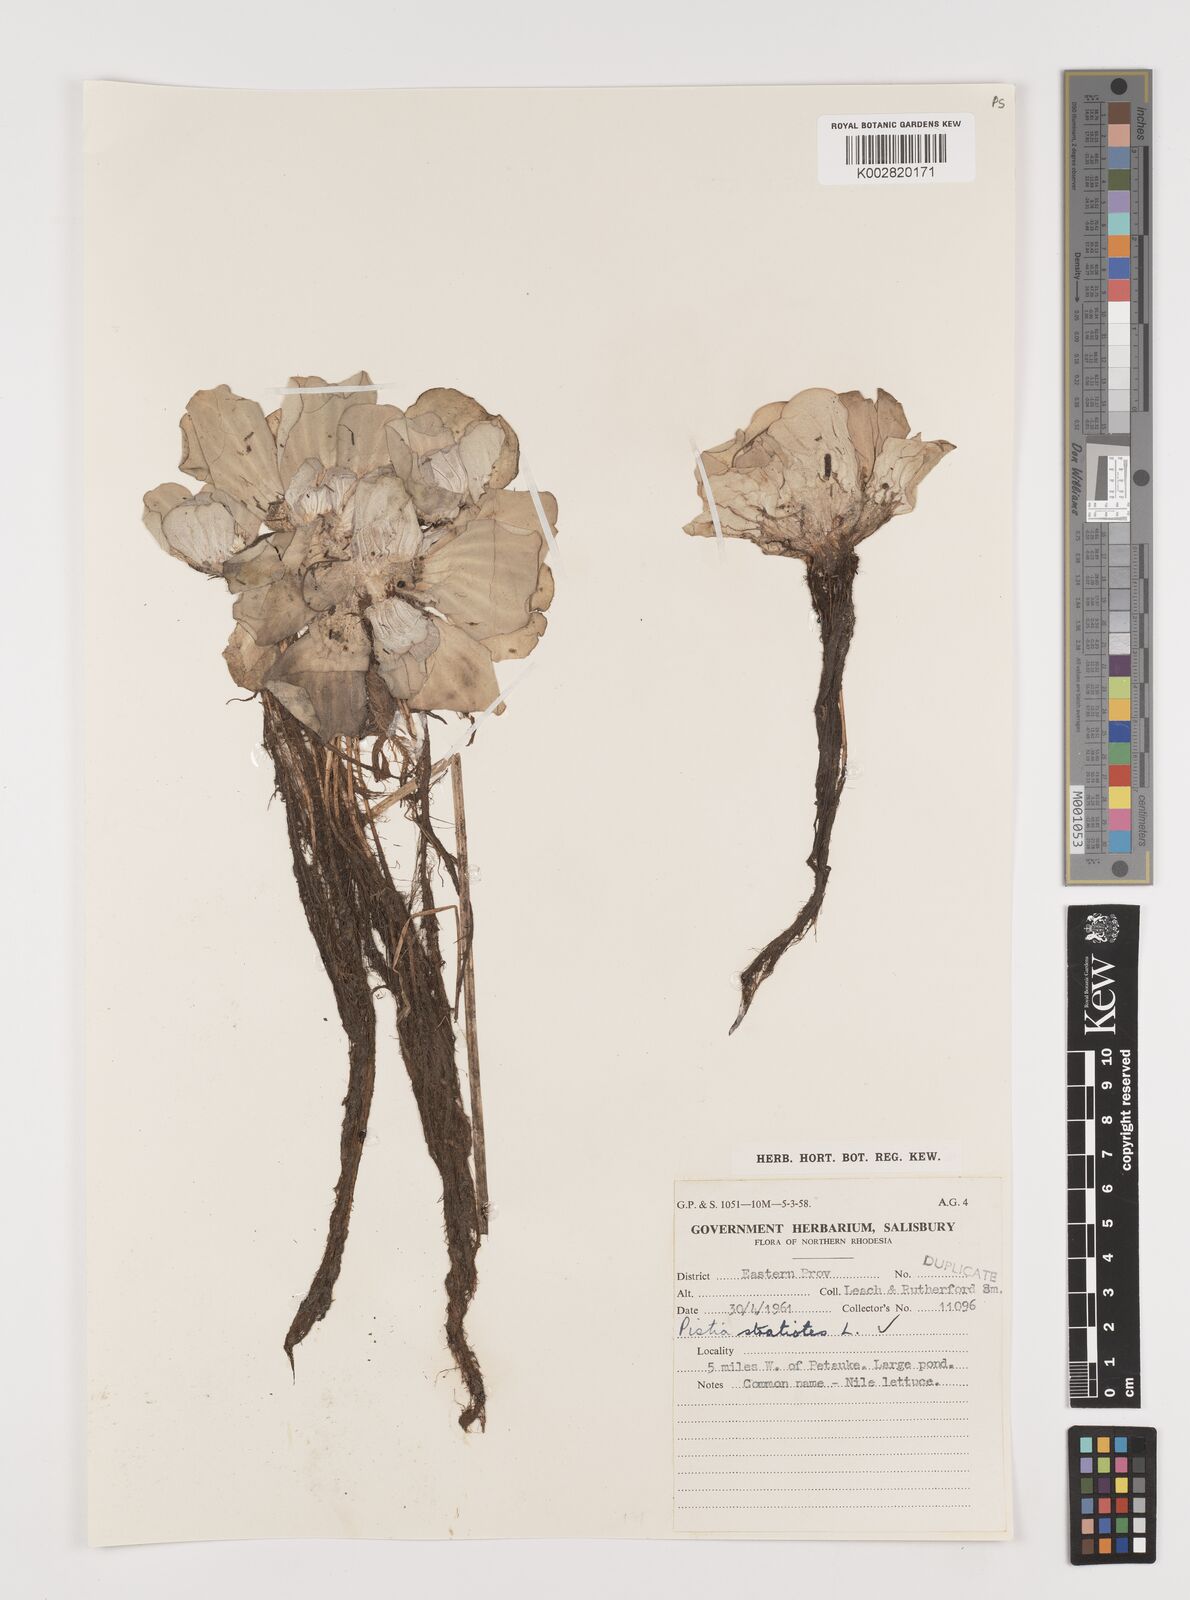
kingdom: Plantae
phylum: Tracheophyta
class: Liliopsida
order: Alismatales
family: Araceae
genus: Pistia
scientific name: Pistia stratiotes
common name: Water lettuce
